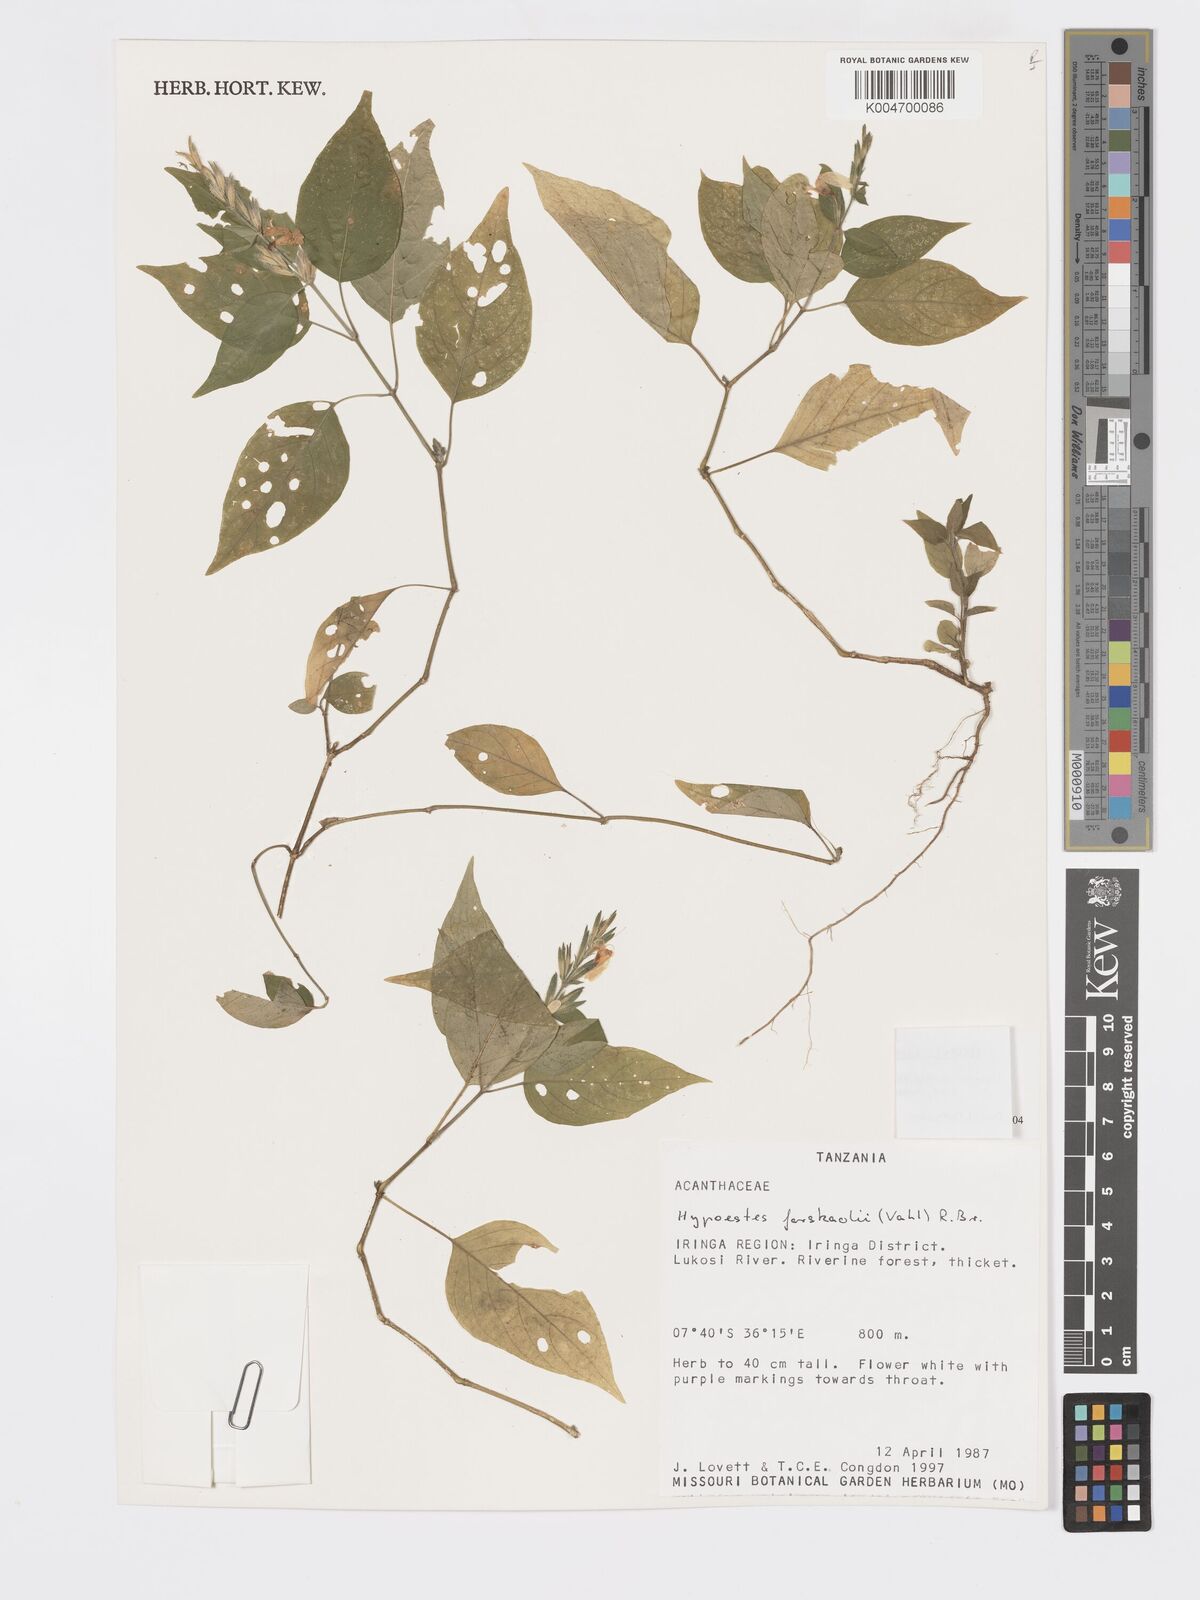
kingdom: Plantae
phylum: Tracheophyta
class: Magnoliopsida
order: Lamiales
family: Acanthaceae
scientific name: Acanthaceae
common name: Acanthaceae
